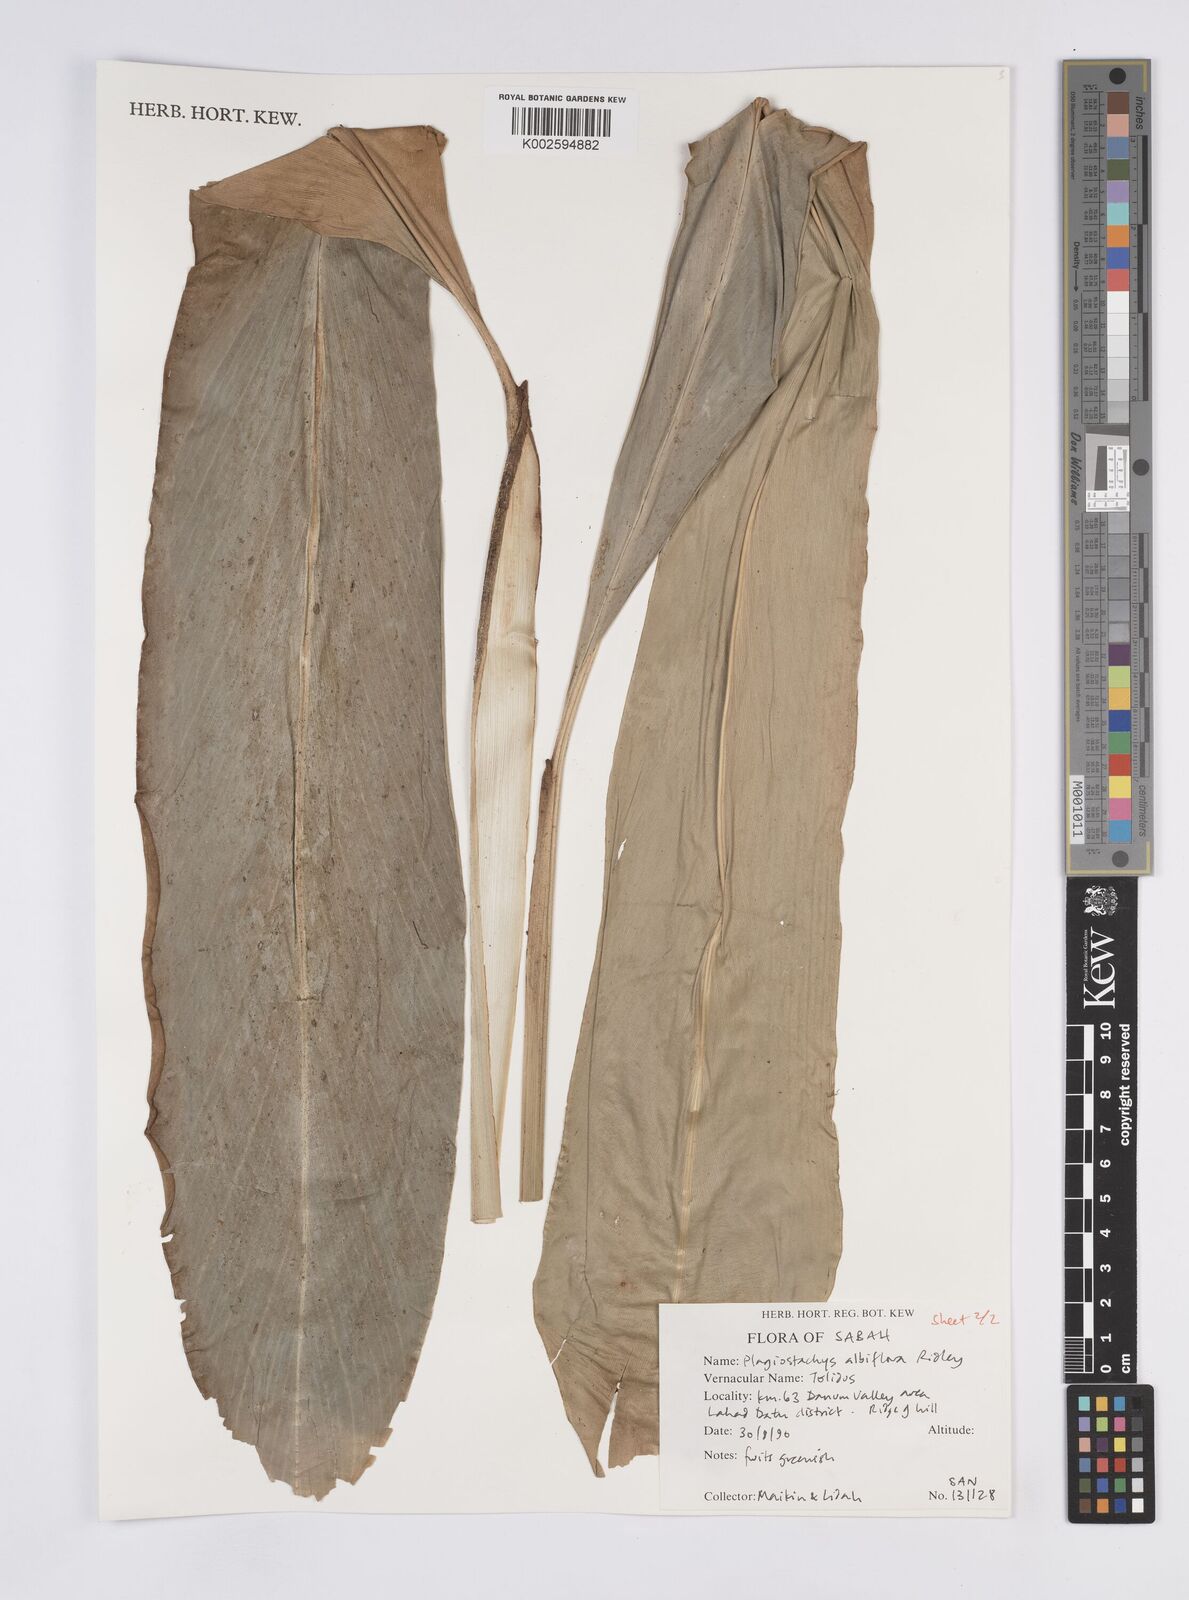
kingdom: Plantae
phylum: Tracheophyta
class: Liliopsida
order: Zingiberales
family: Zingiberaceae
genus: Plagiostachys
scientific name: Plagiostachys albiflora
